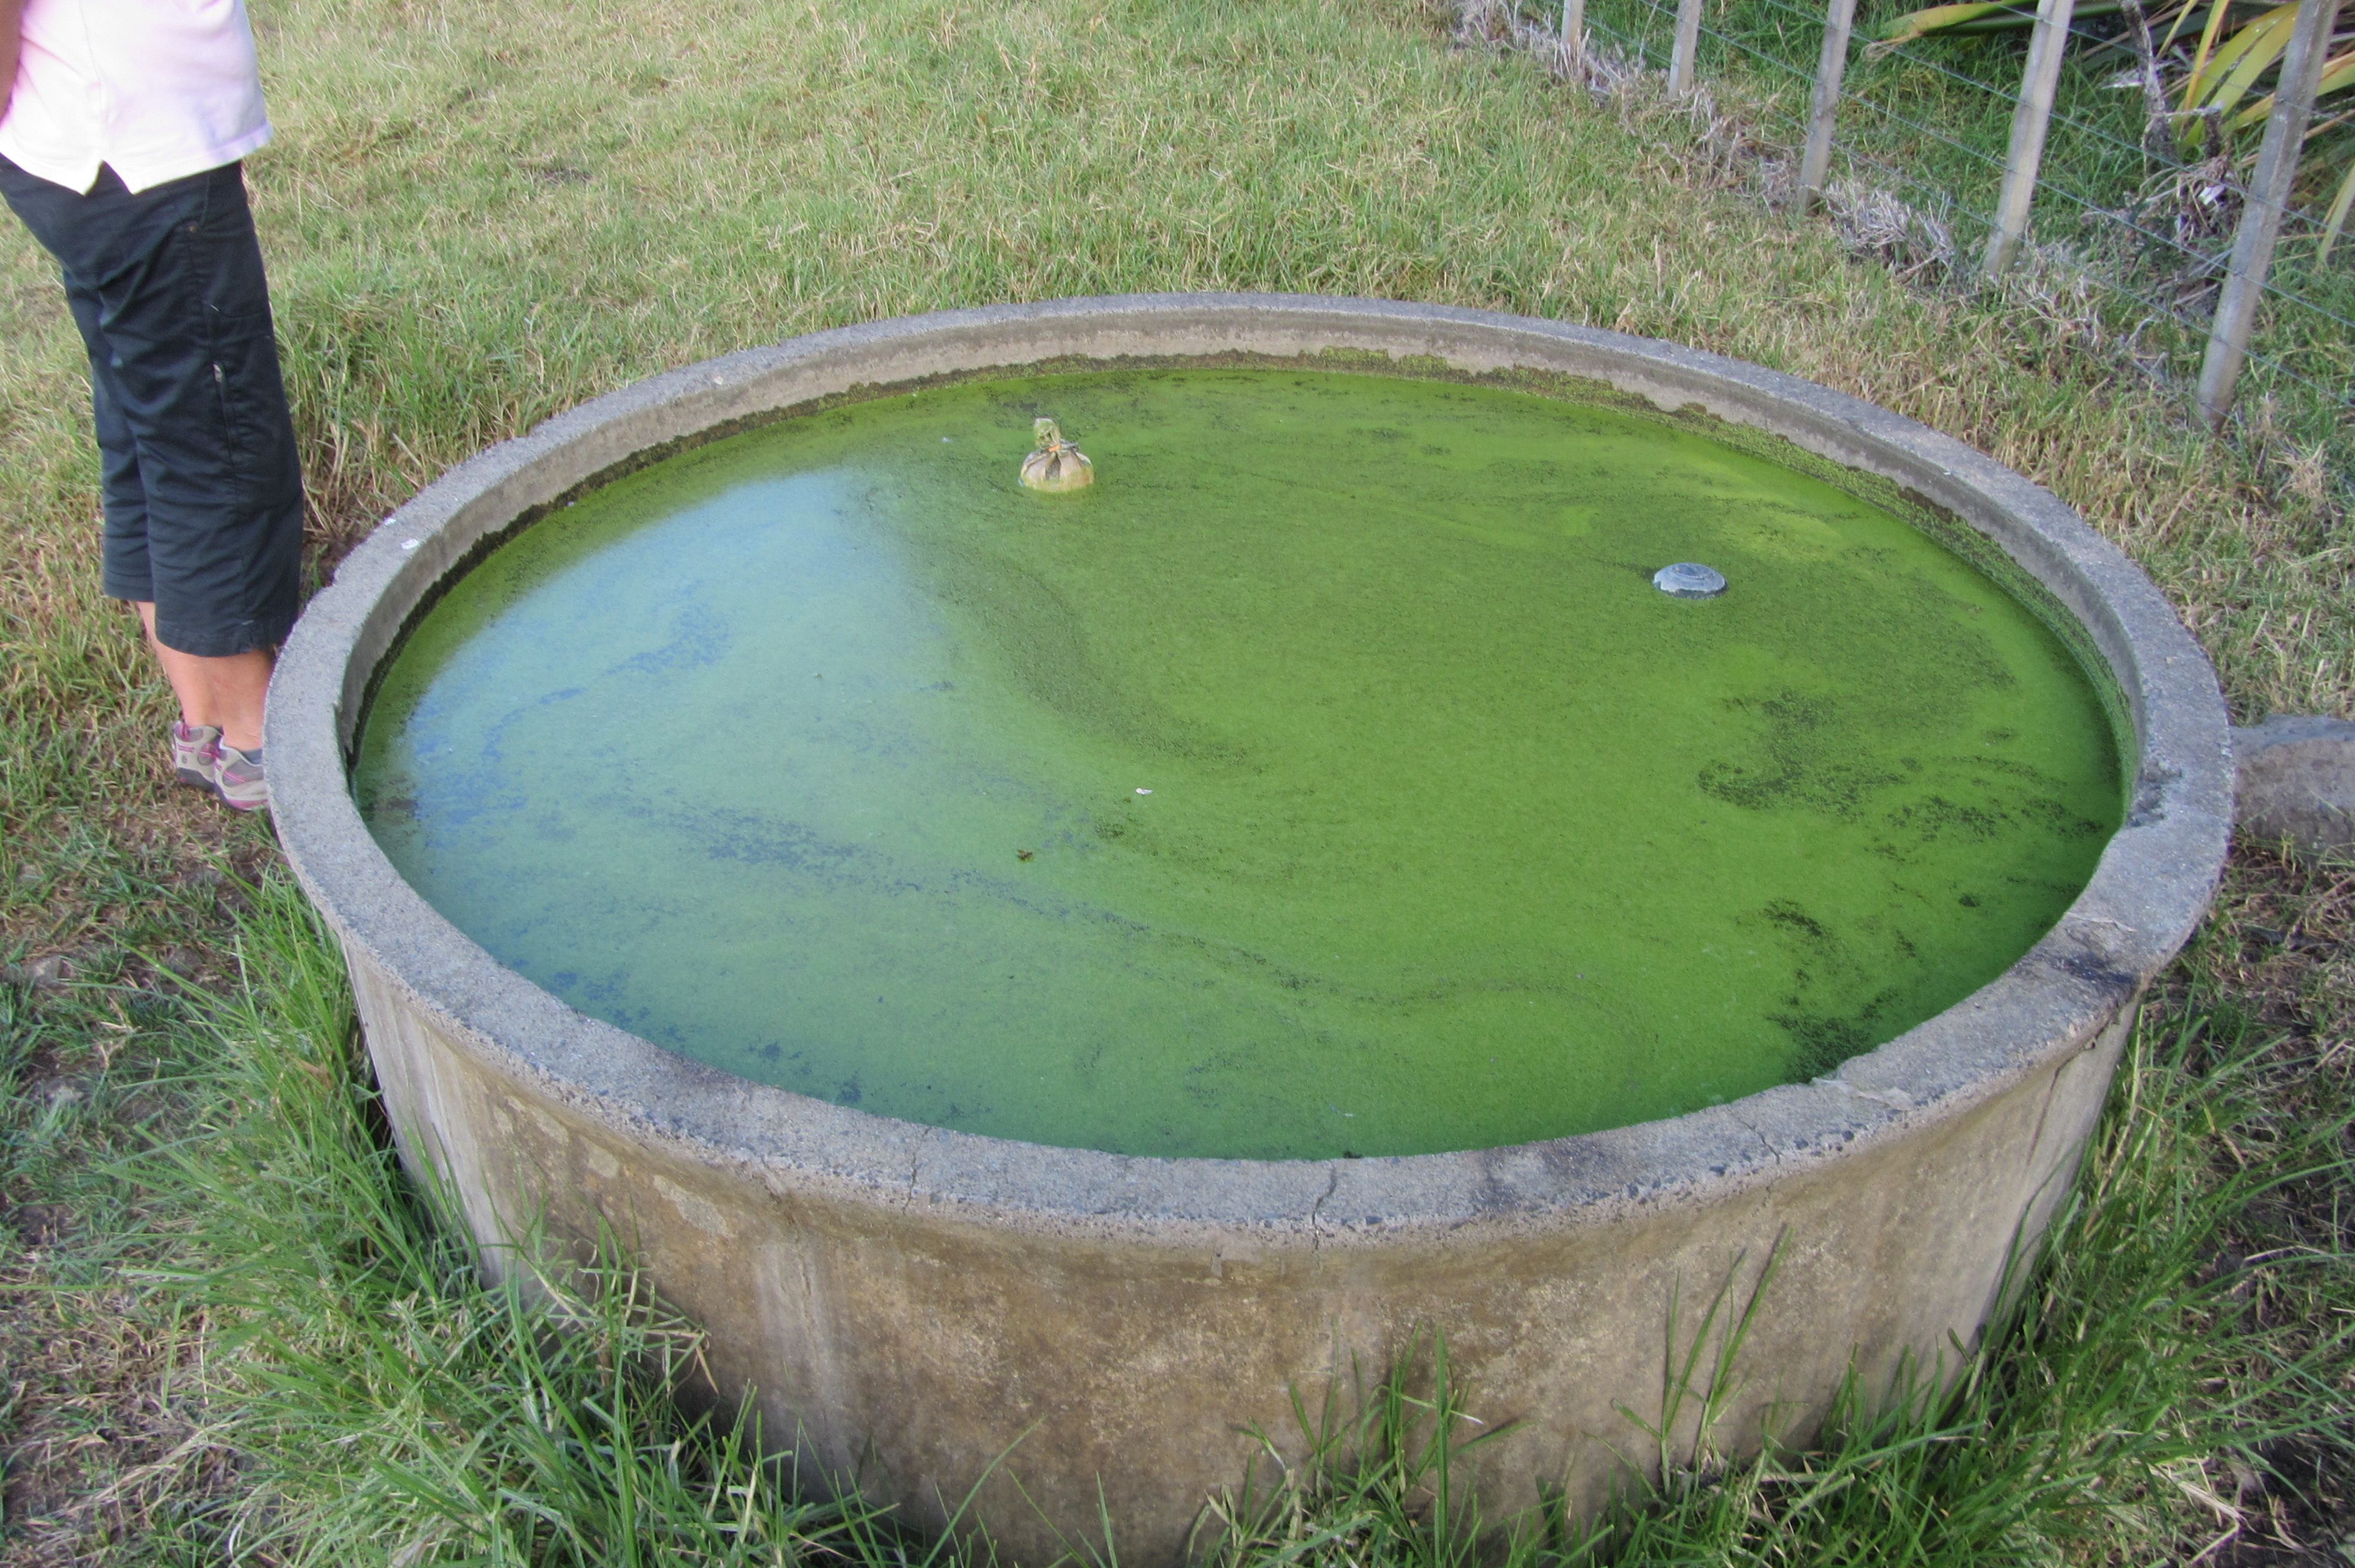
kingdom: Plantae
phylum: Chlorophyta
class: Ulvophyceae
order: Cladophorales
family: Cladophoraceae
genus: Wittrockiella
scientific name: Wittrockiella lyallii
